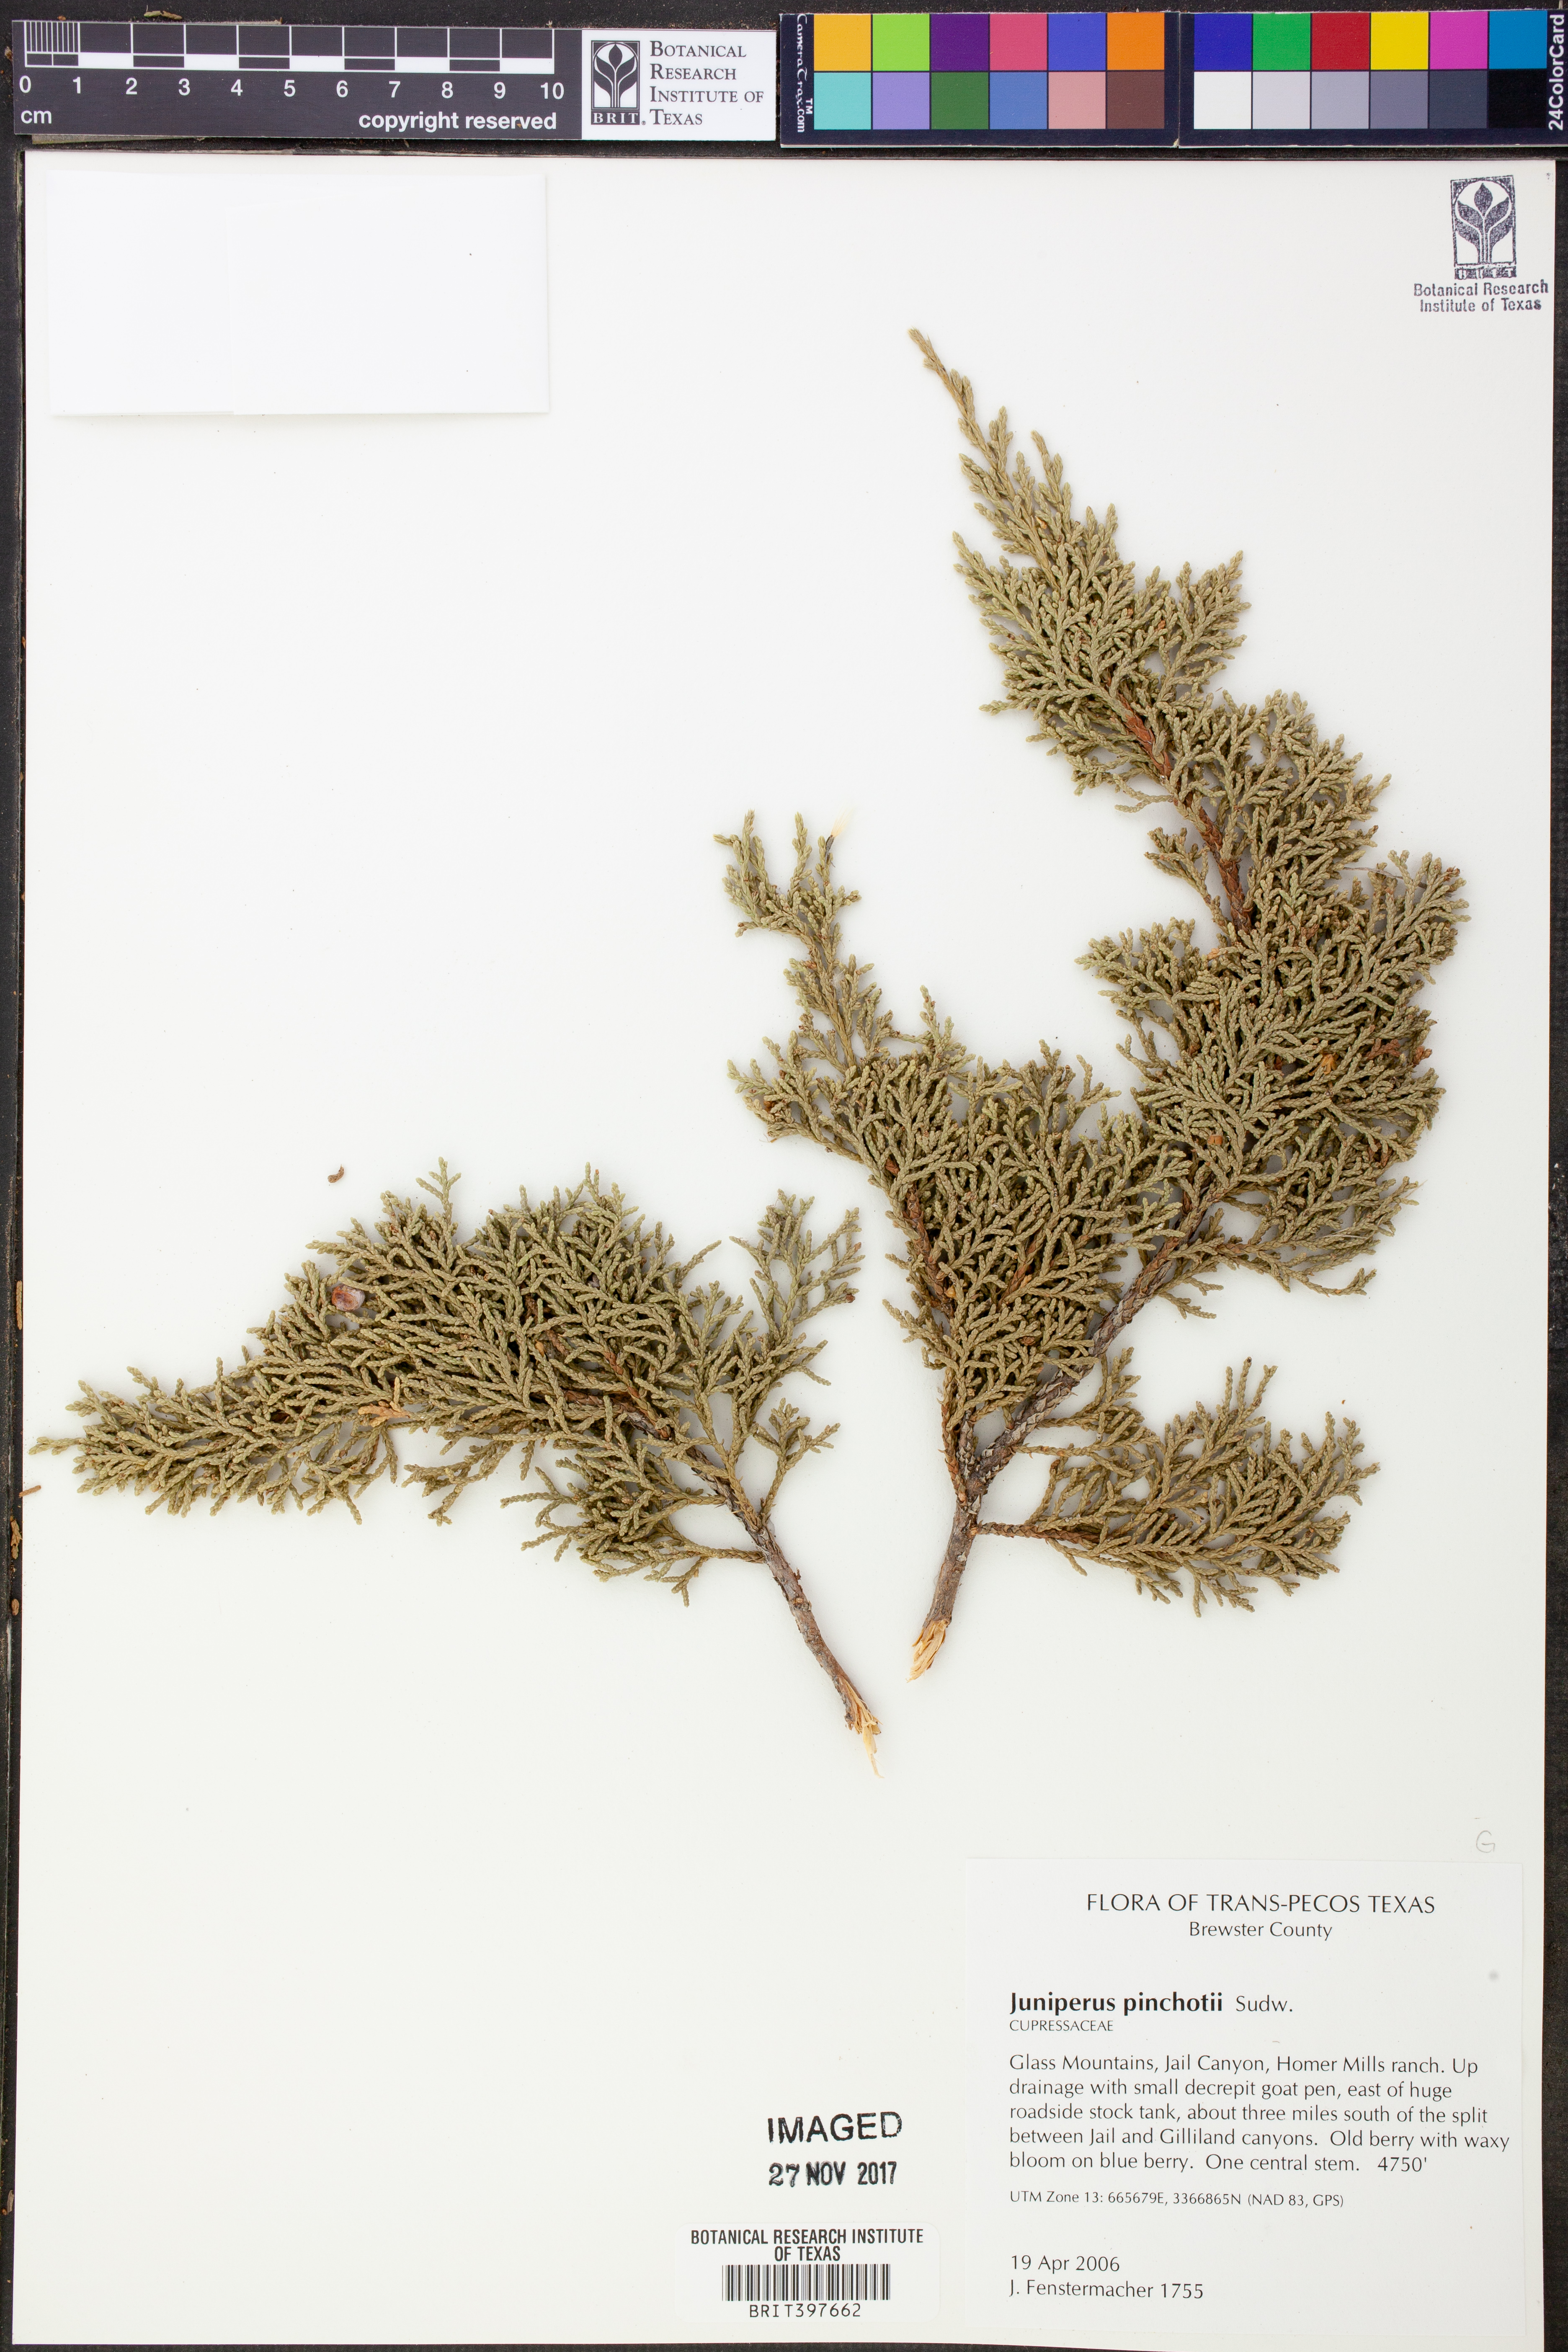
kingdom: Plantae
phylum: Tracheophyta
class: Pinopsida
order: Pinales
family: Cupressaceae
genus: Juniperus
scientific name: Juniperus pinchotii
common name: Pinchot juniper
